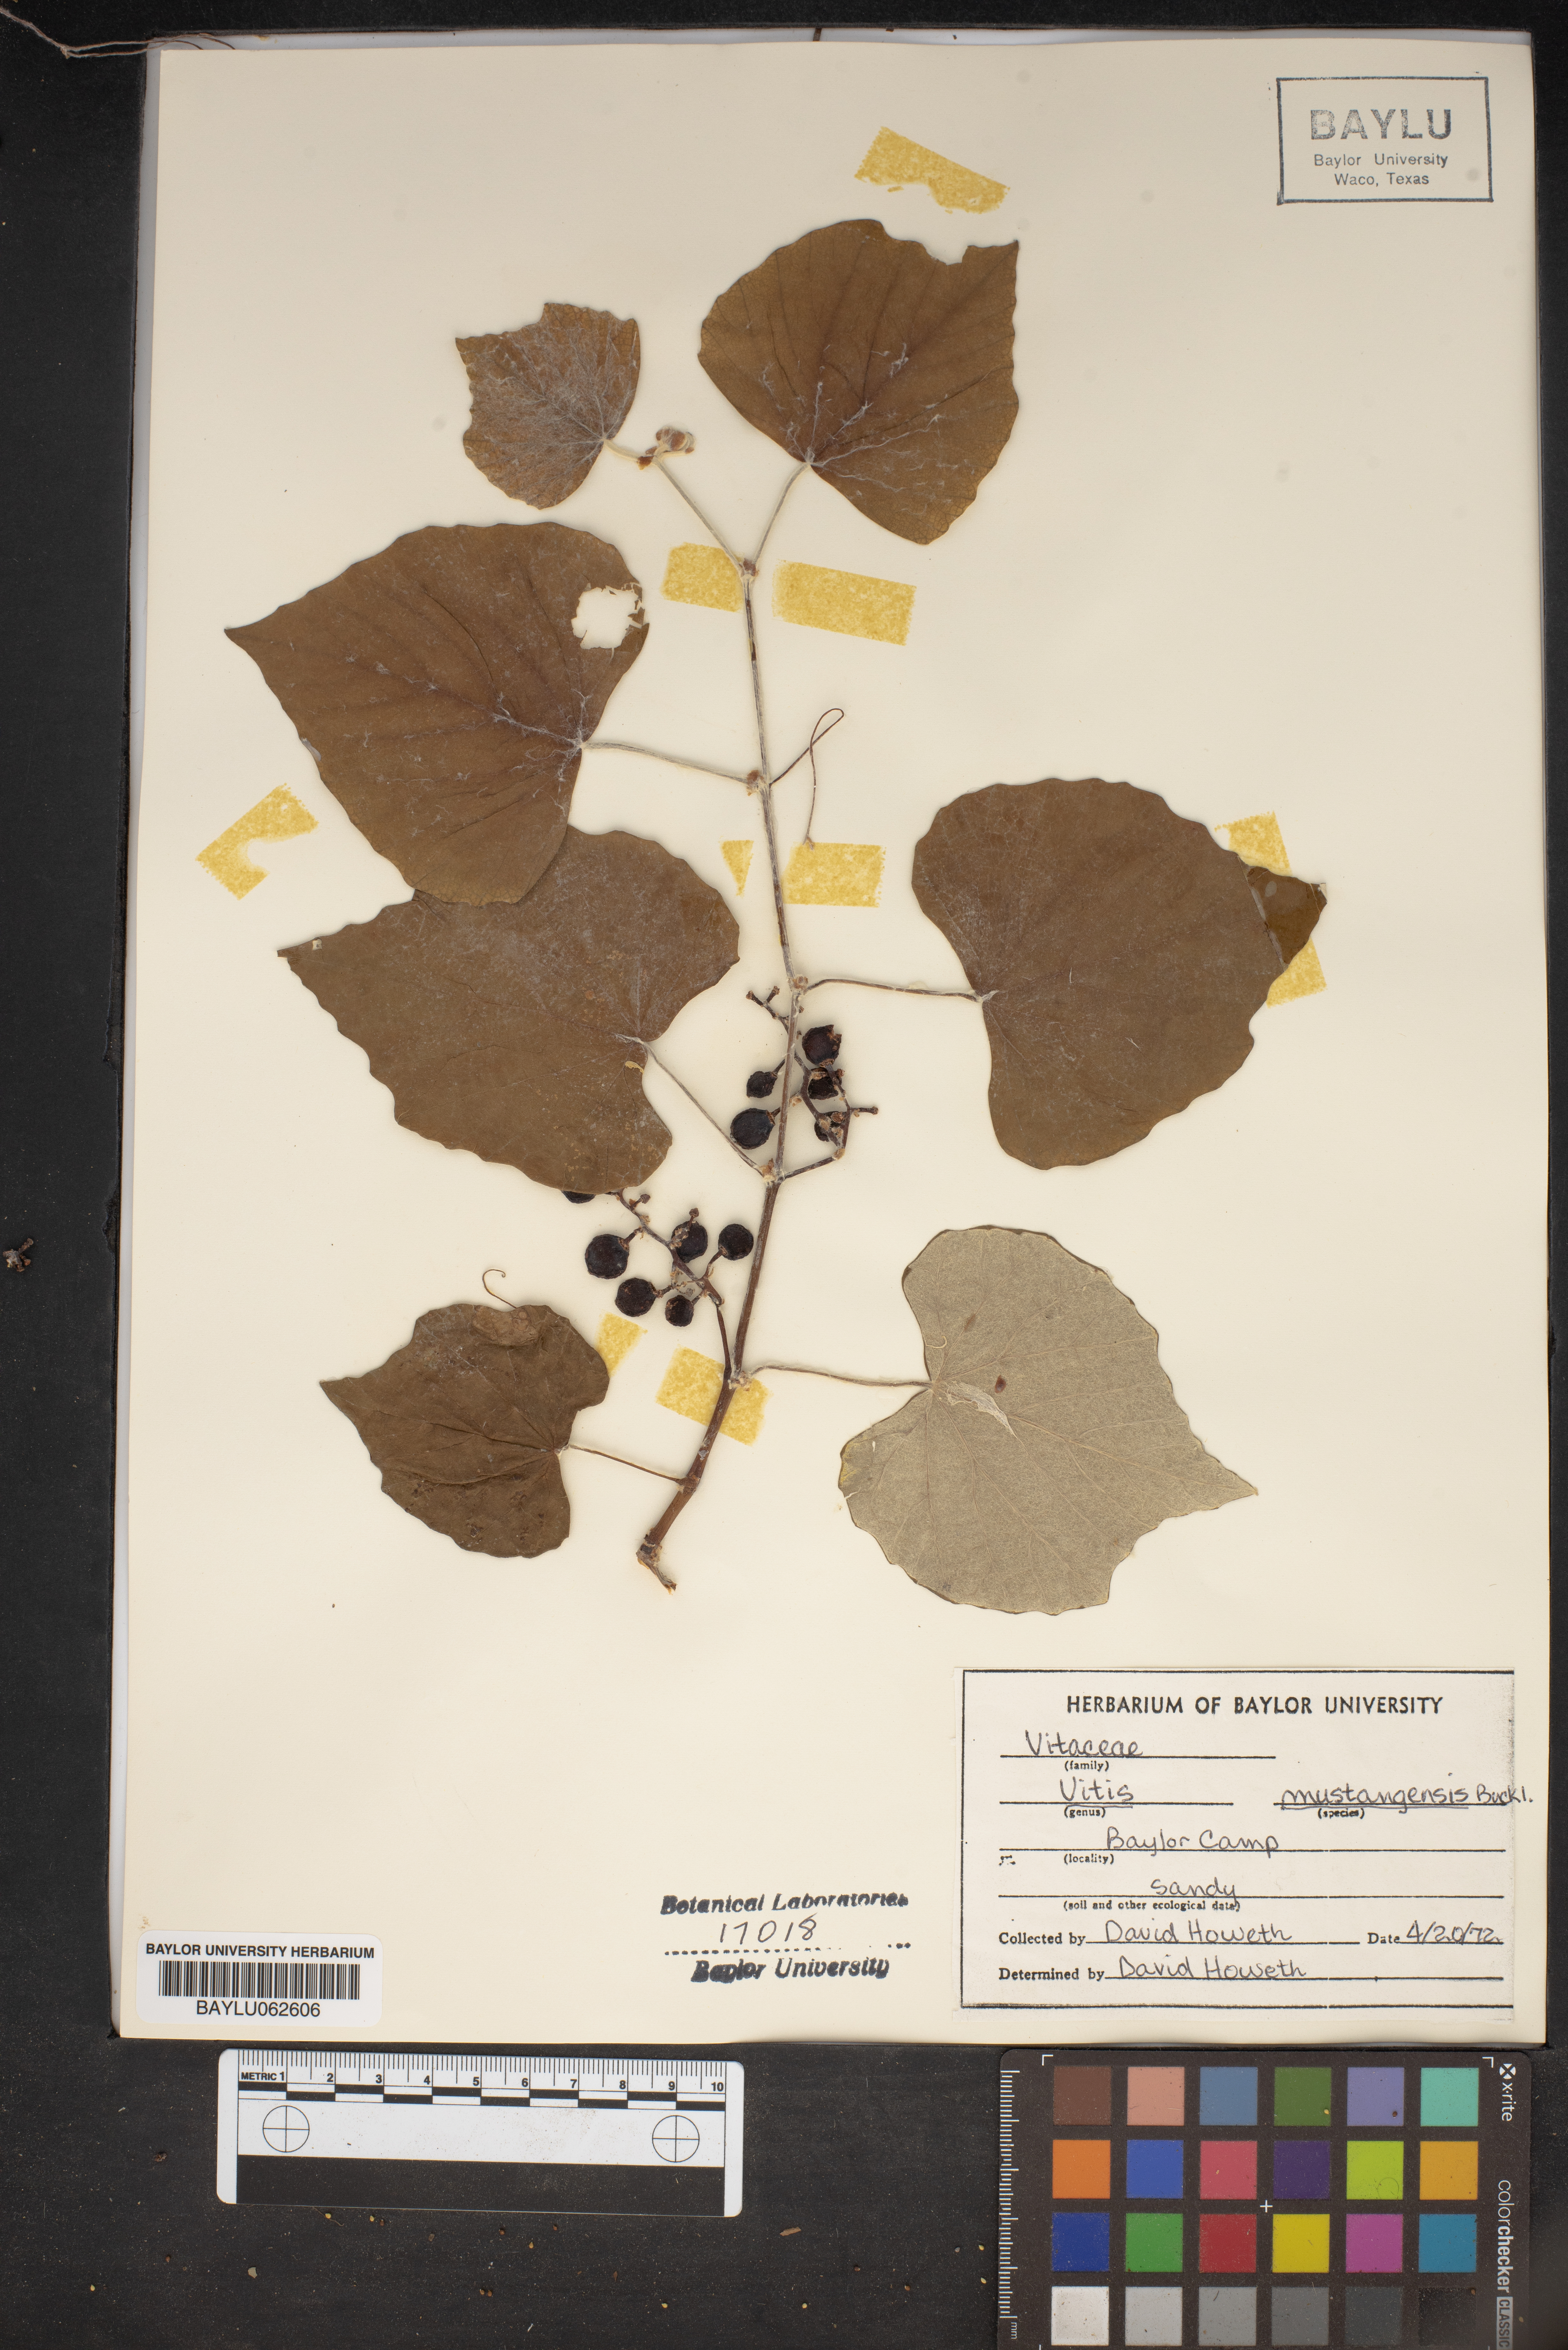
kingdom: Plantae
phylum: Tracheophyta
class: Magnoliopsida
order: Vitales
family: Vitaceae
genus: Vitis
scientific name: Vitis mustangensis
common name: Mustang grape
